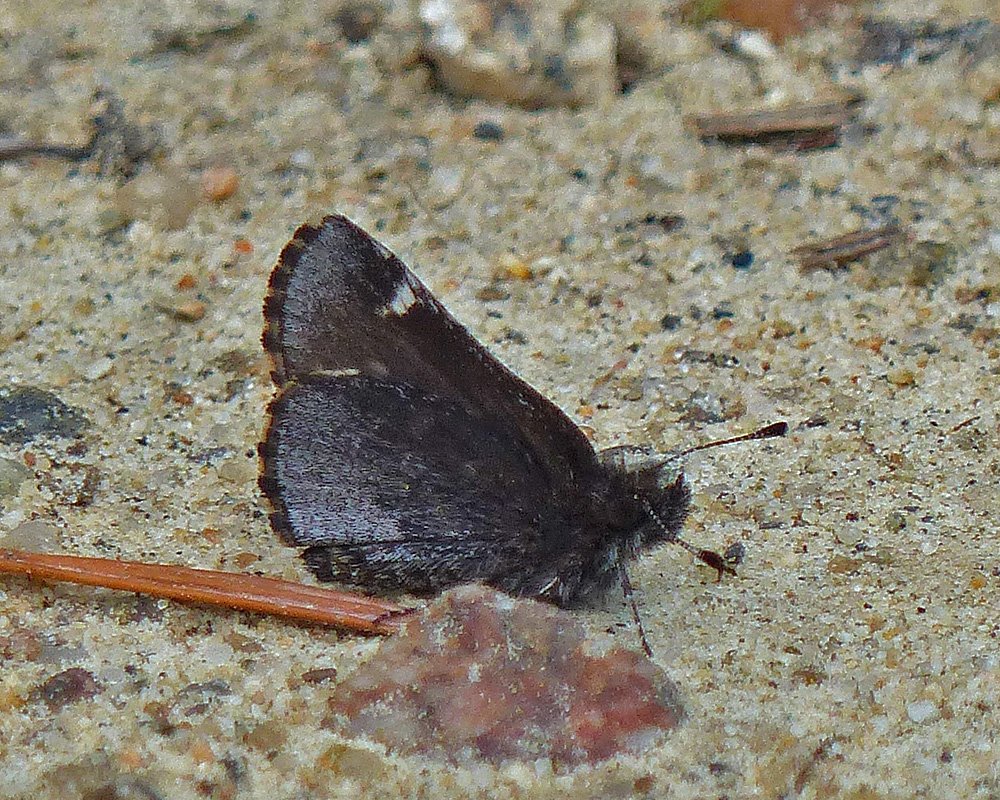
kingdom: Animalia
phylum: Arthropoda
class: Insecta
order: Lepidoptera
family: Hesperiidae
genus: Mastor
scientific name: Mastor vialis
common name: Common Roadside-Skipper
